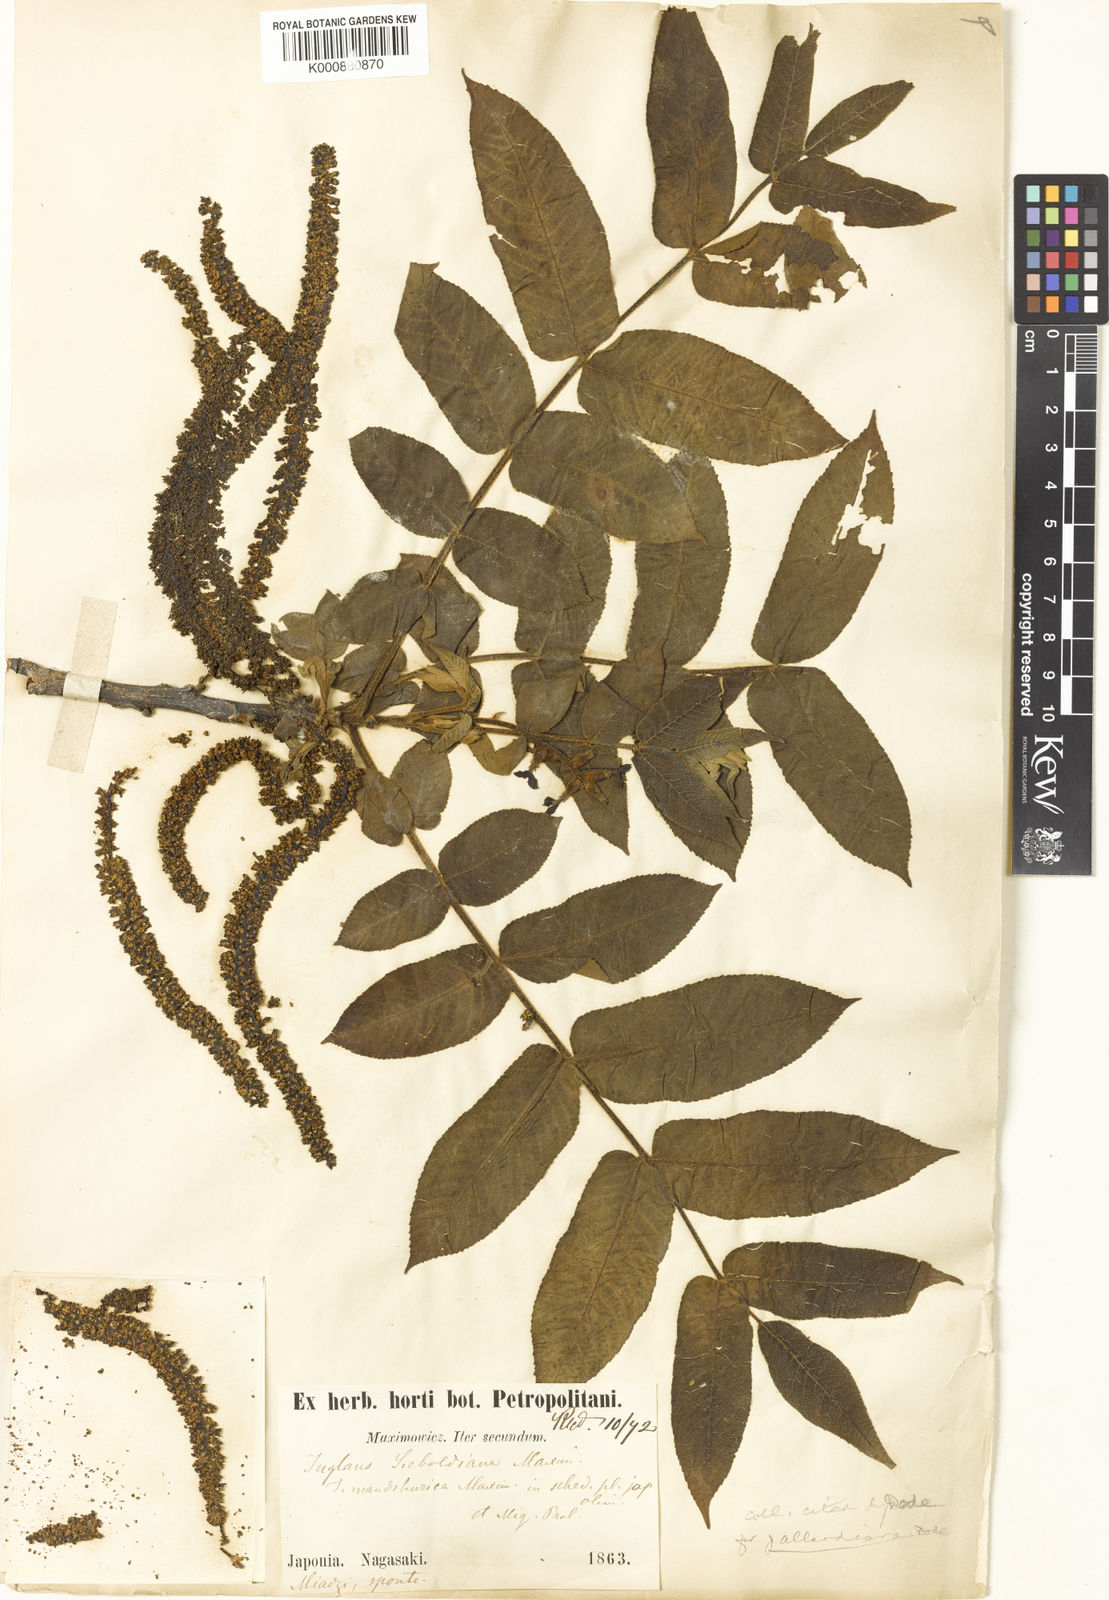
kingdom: Plantae
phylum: Tracheophyta
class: Magnoliopsida
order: Fagales
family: Juglandaceae
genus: Juglans
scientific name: Juglans ailantifolia
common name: Japanese walnut
